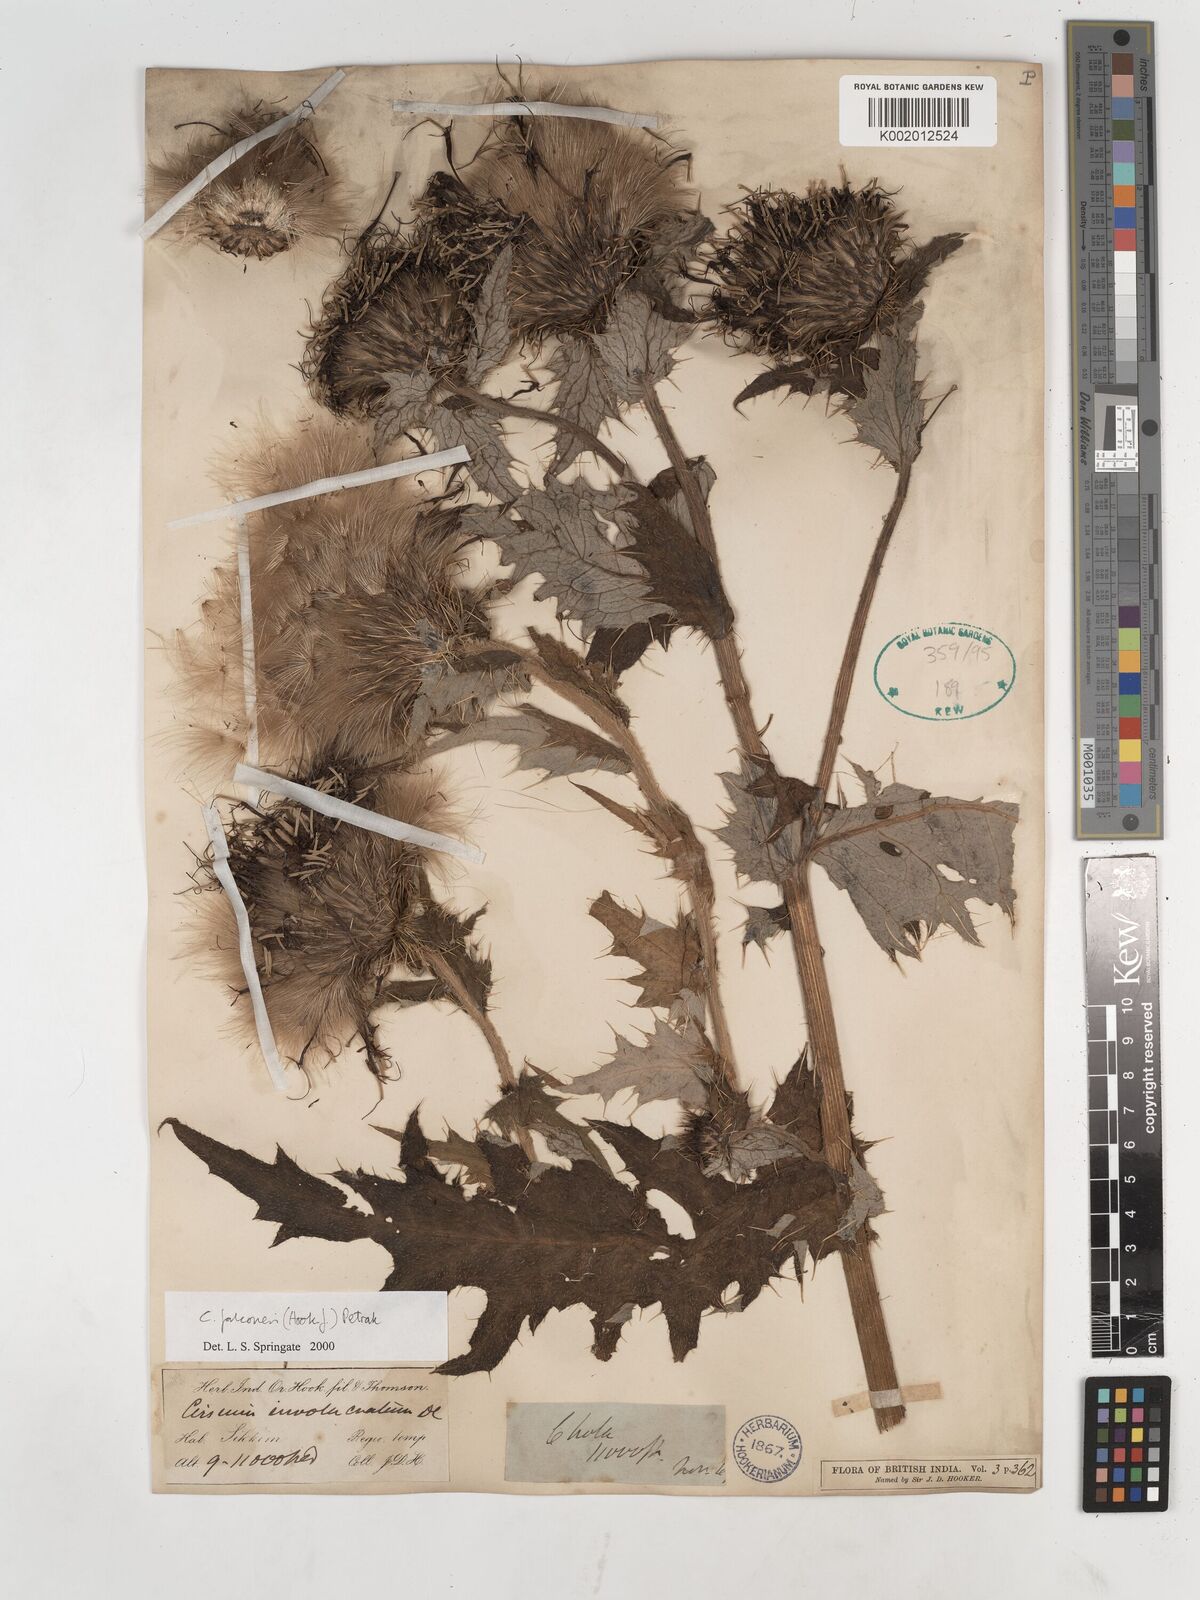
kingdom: Plantae
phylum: Tracheophyta
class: Magnoliopsida
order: Asterales
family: Asteraceae
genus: Cirsium
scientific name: Cirsium falconeri
